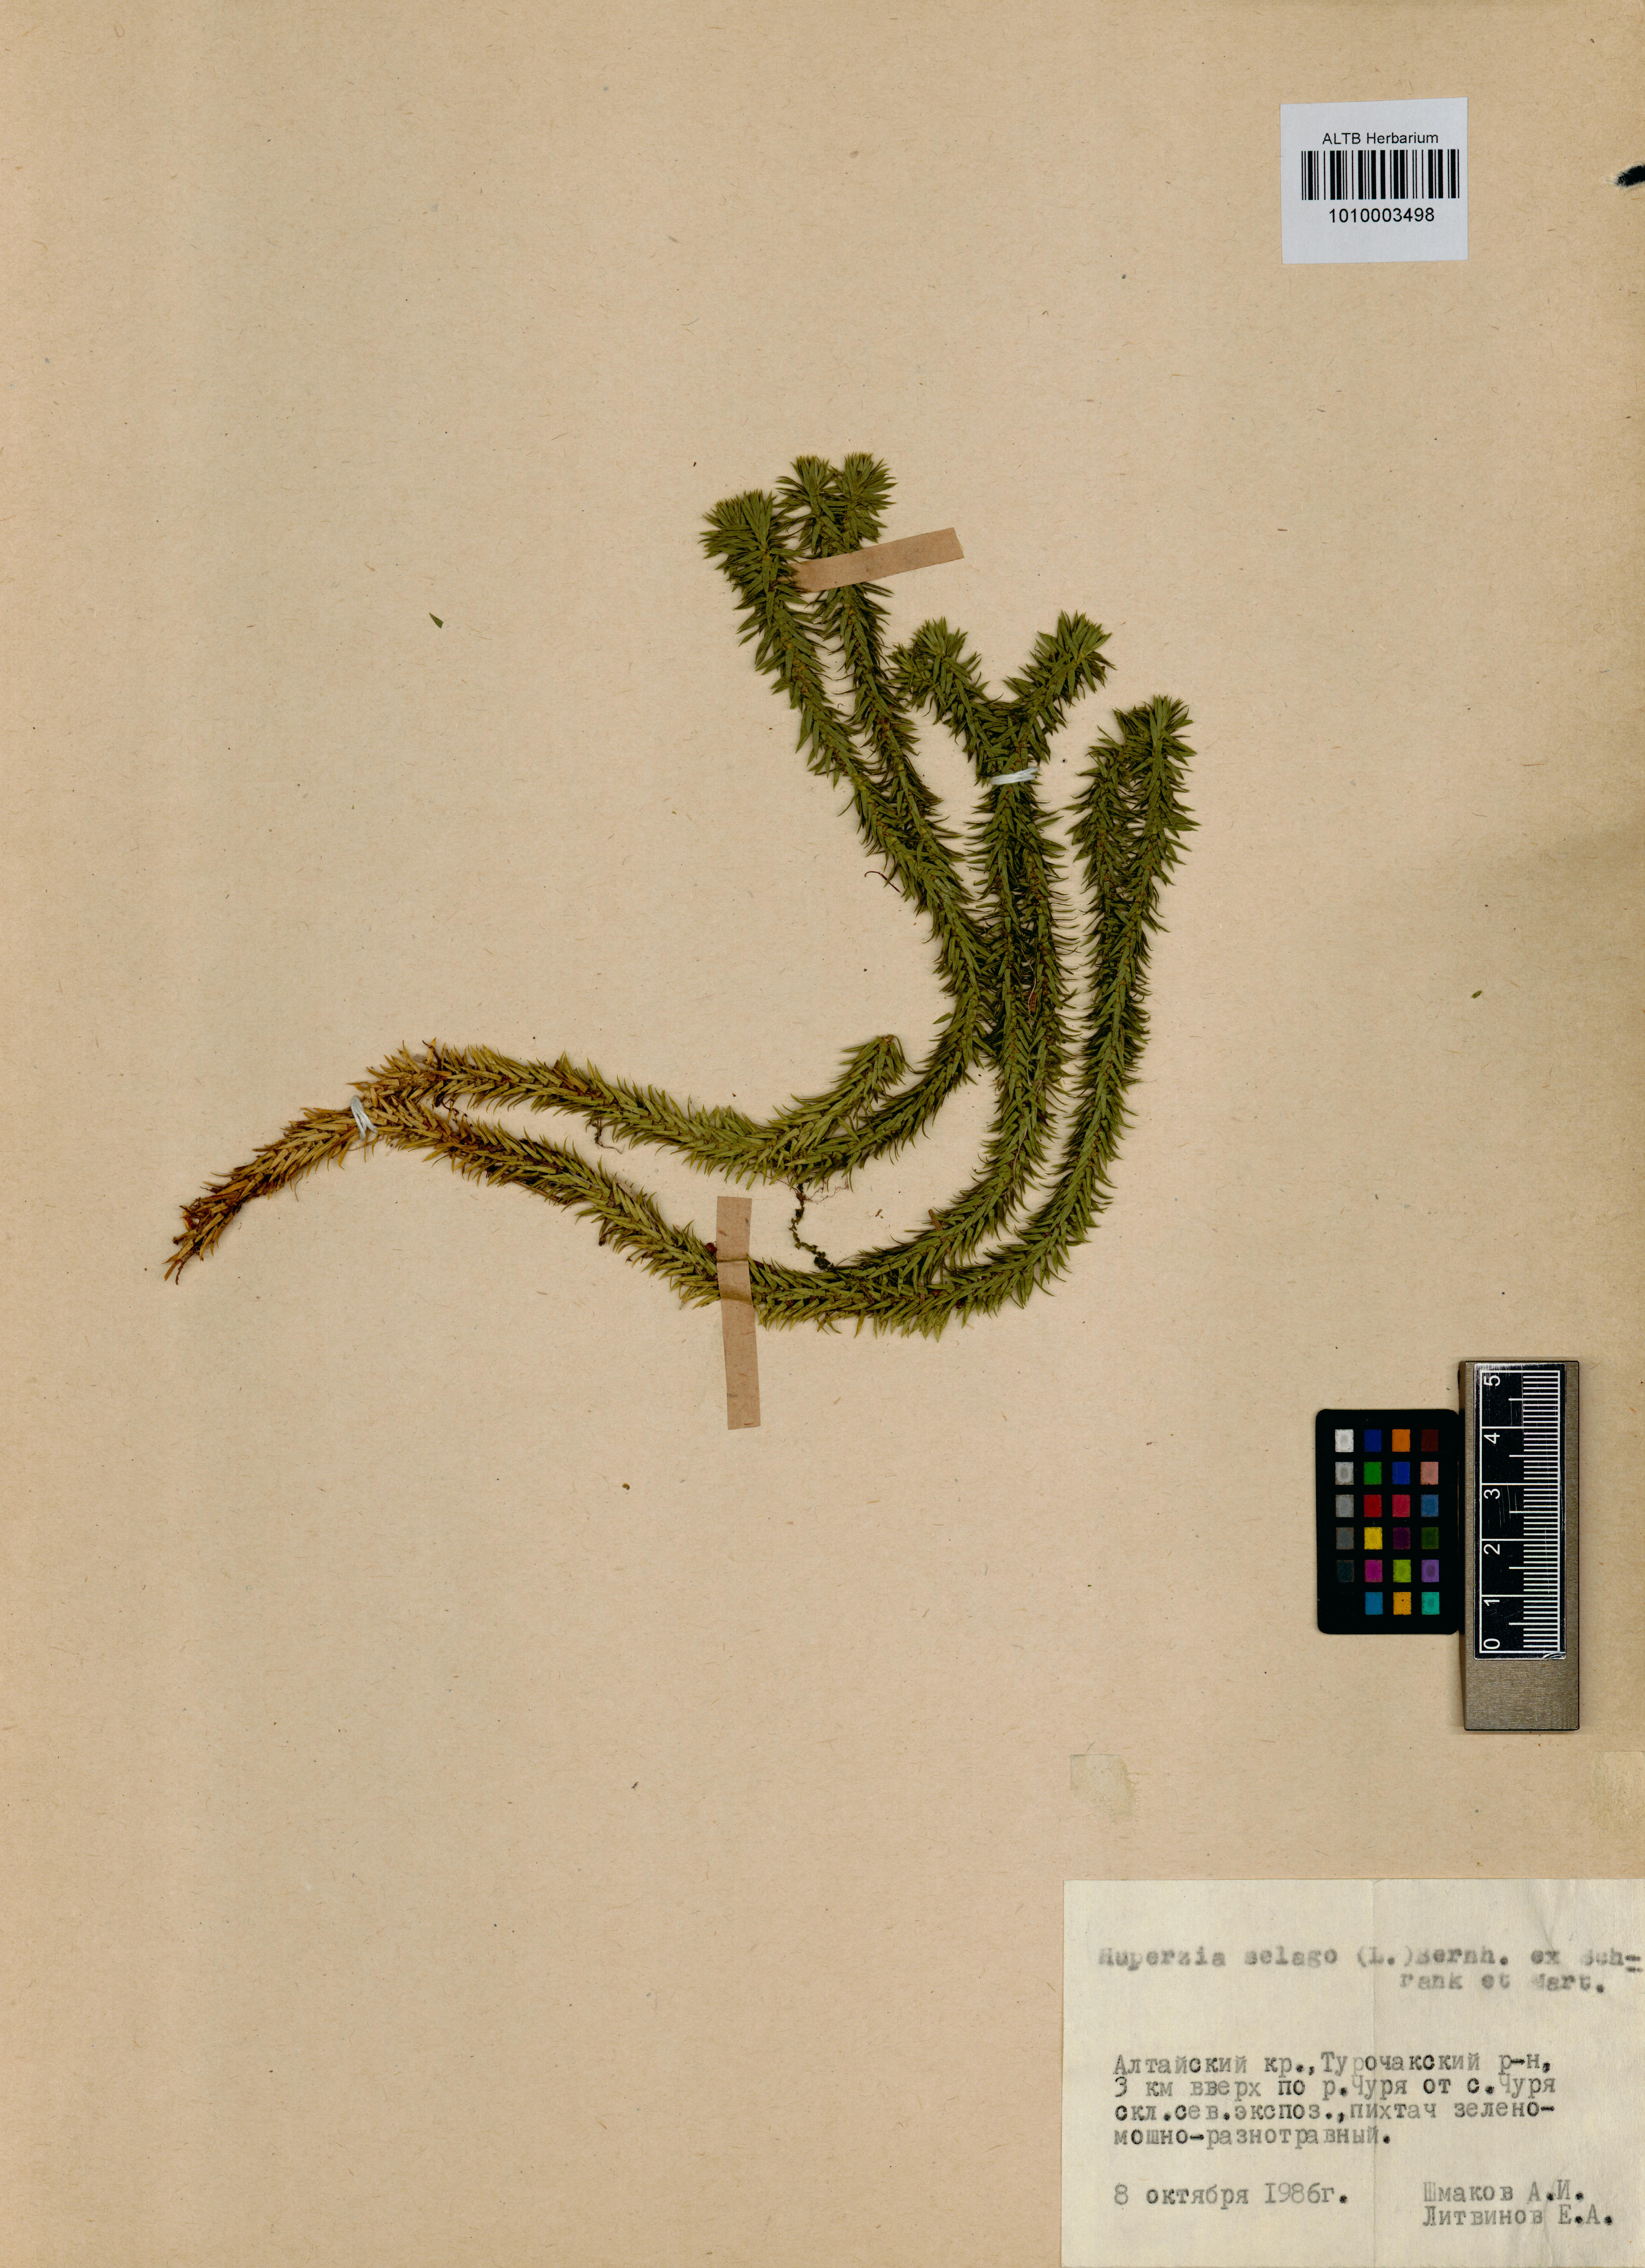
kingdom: Plantae
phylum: Tracheophyta
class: Lycopodiopsida
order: Lycopodiales
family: Lycopodiaceae
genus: Huperzia
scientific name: Huperzia selago
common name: Northern firmoss
